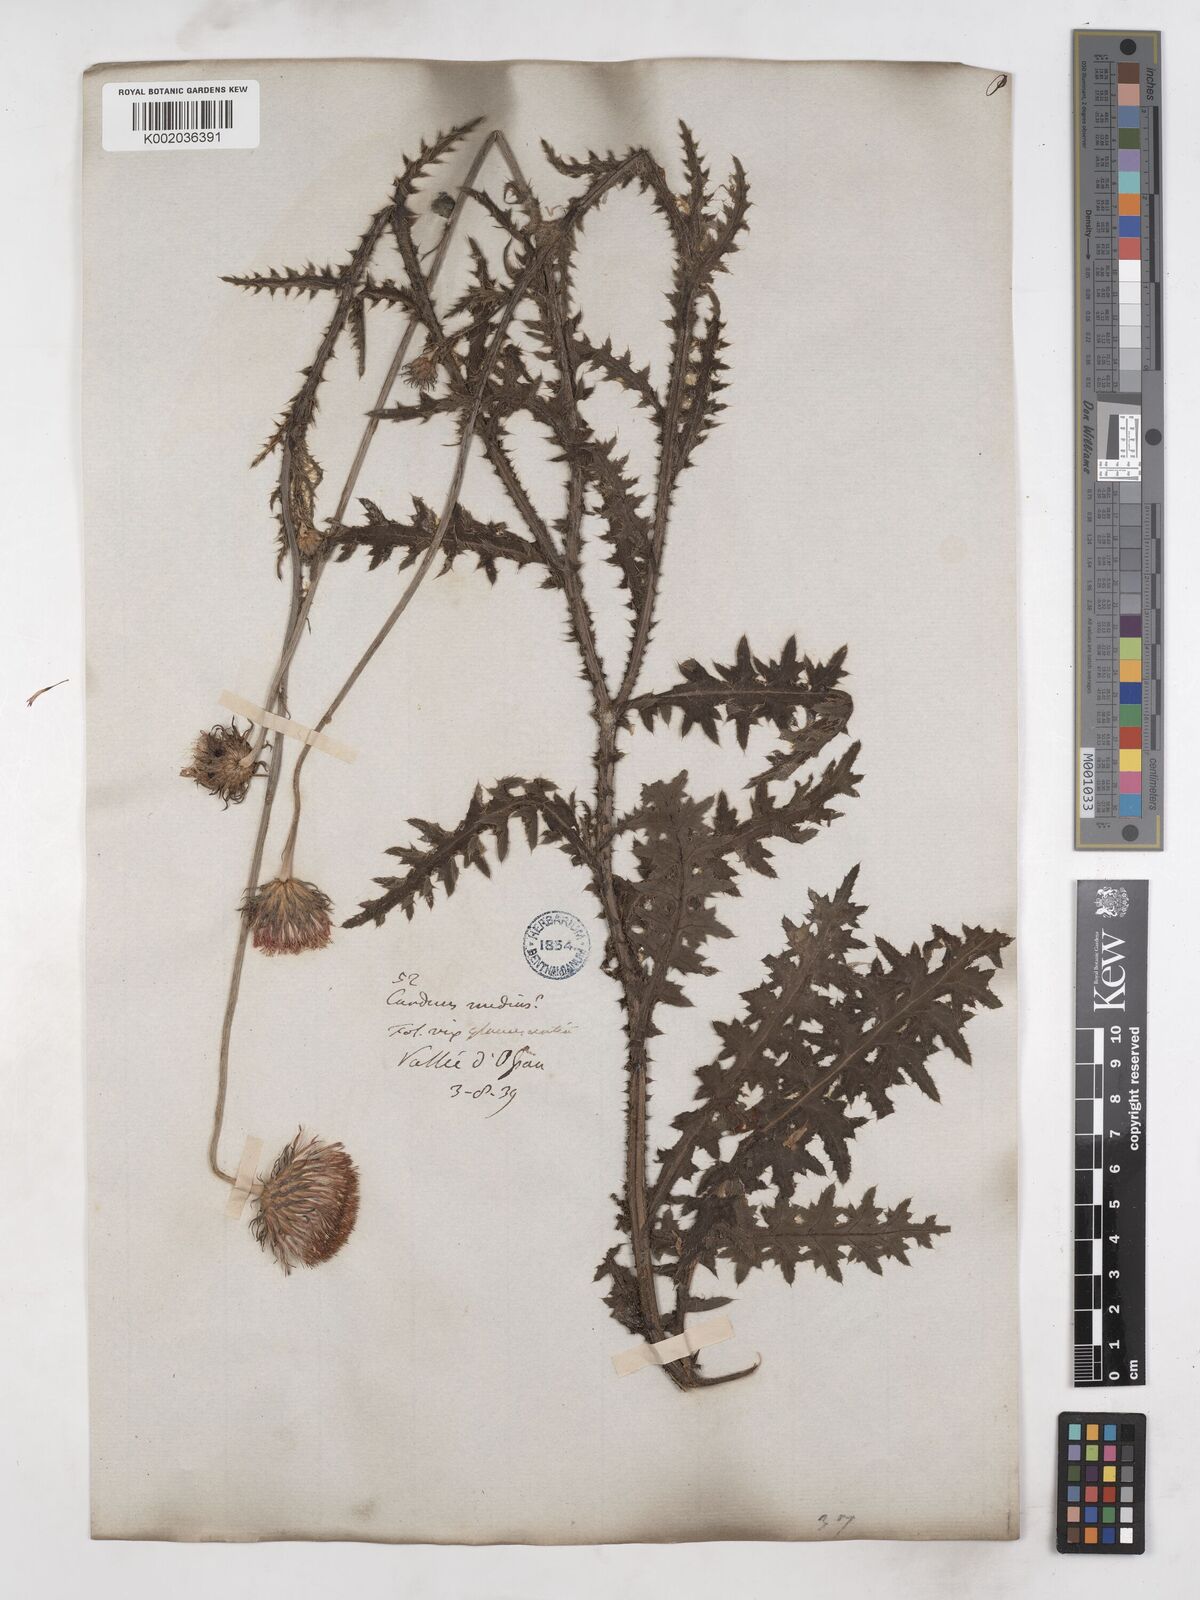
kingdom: Plantae
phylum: Tracheophyta
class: Magnoliopsida
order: Asterales
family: Asteraceae
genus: Carduus
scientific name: Carduus defloratus
